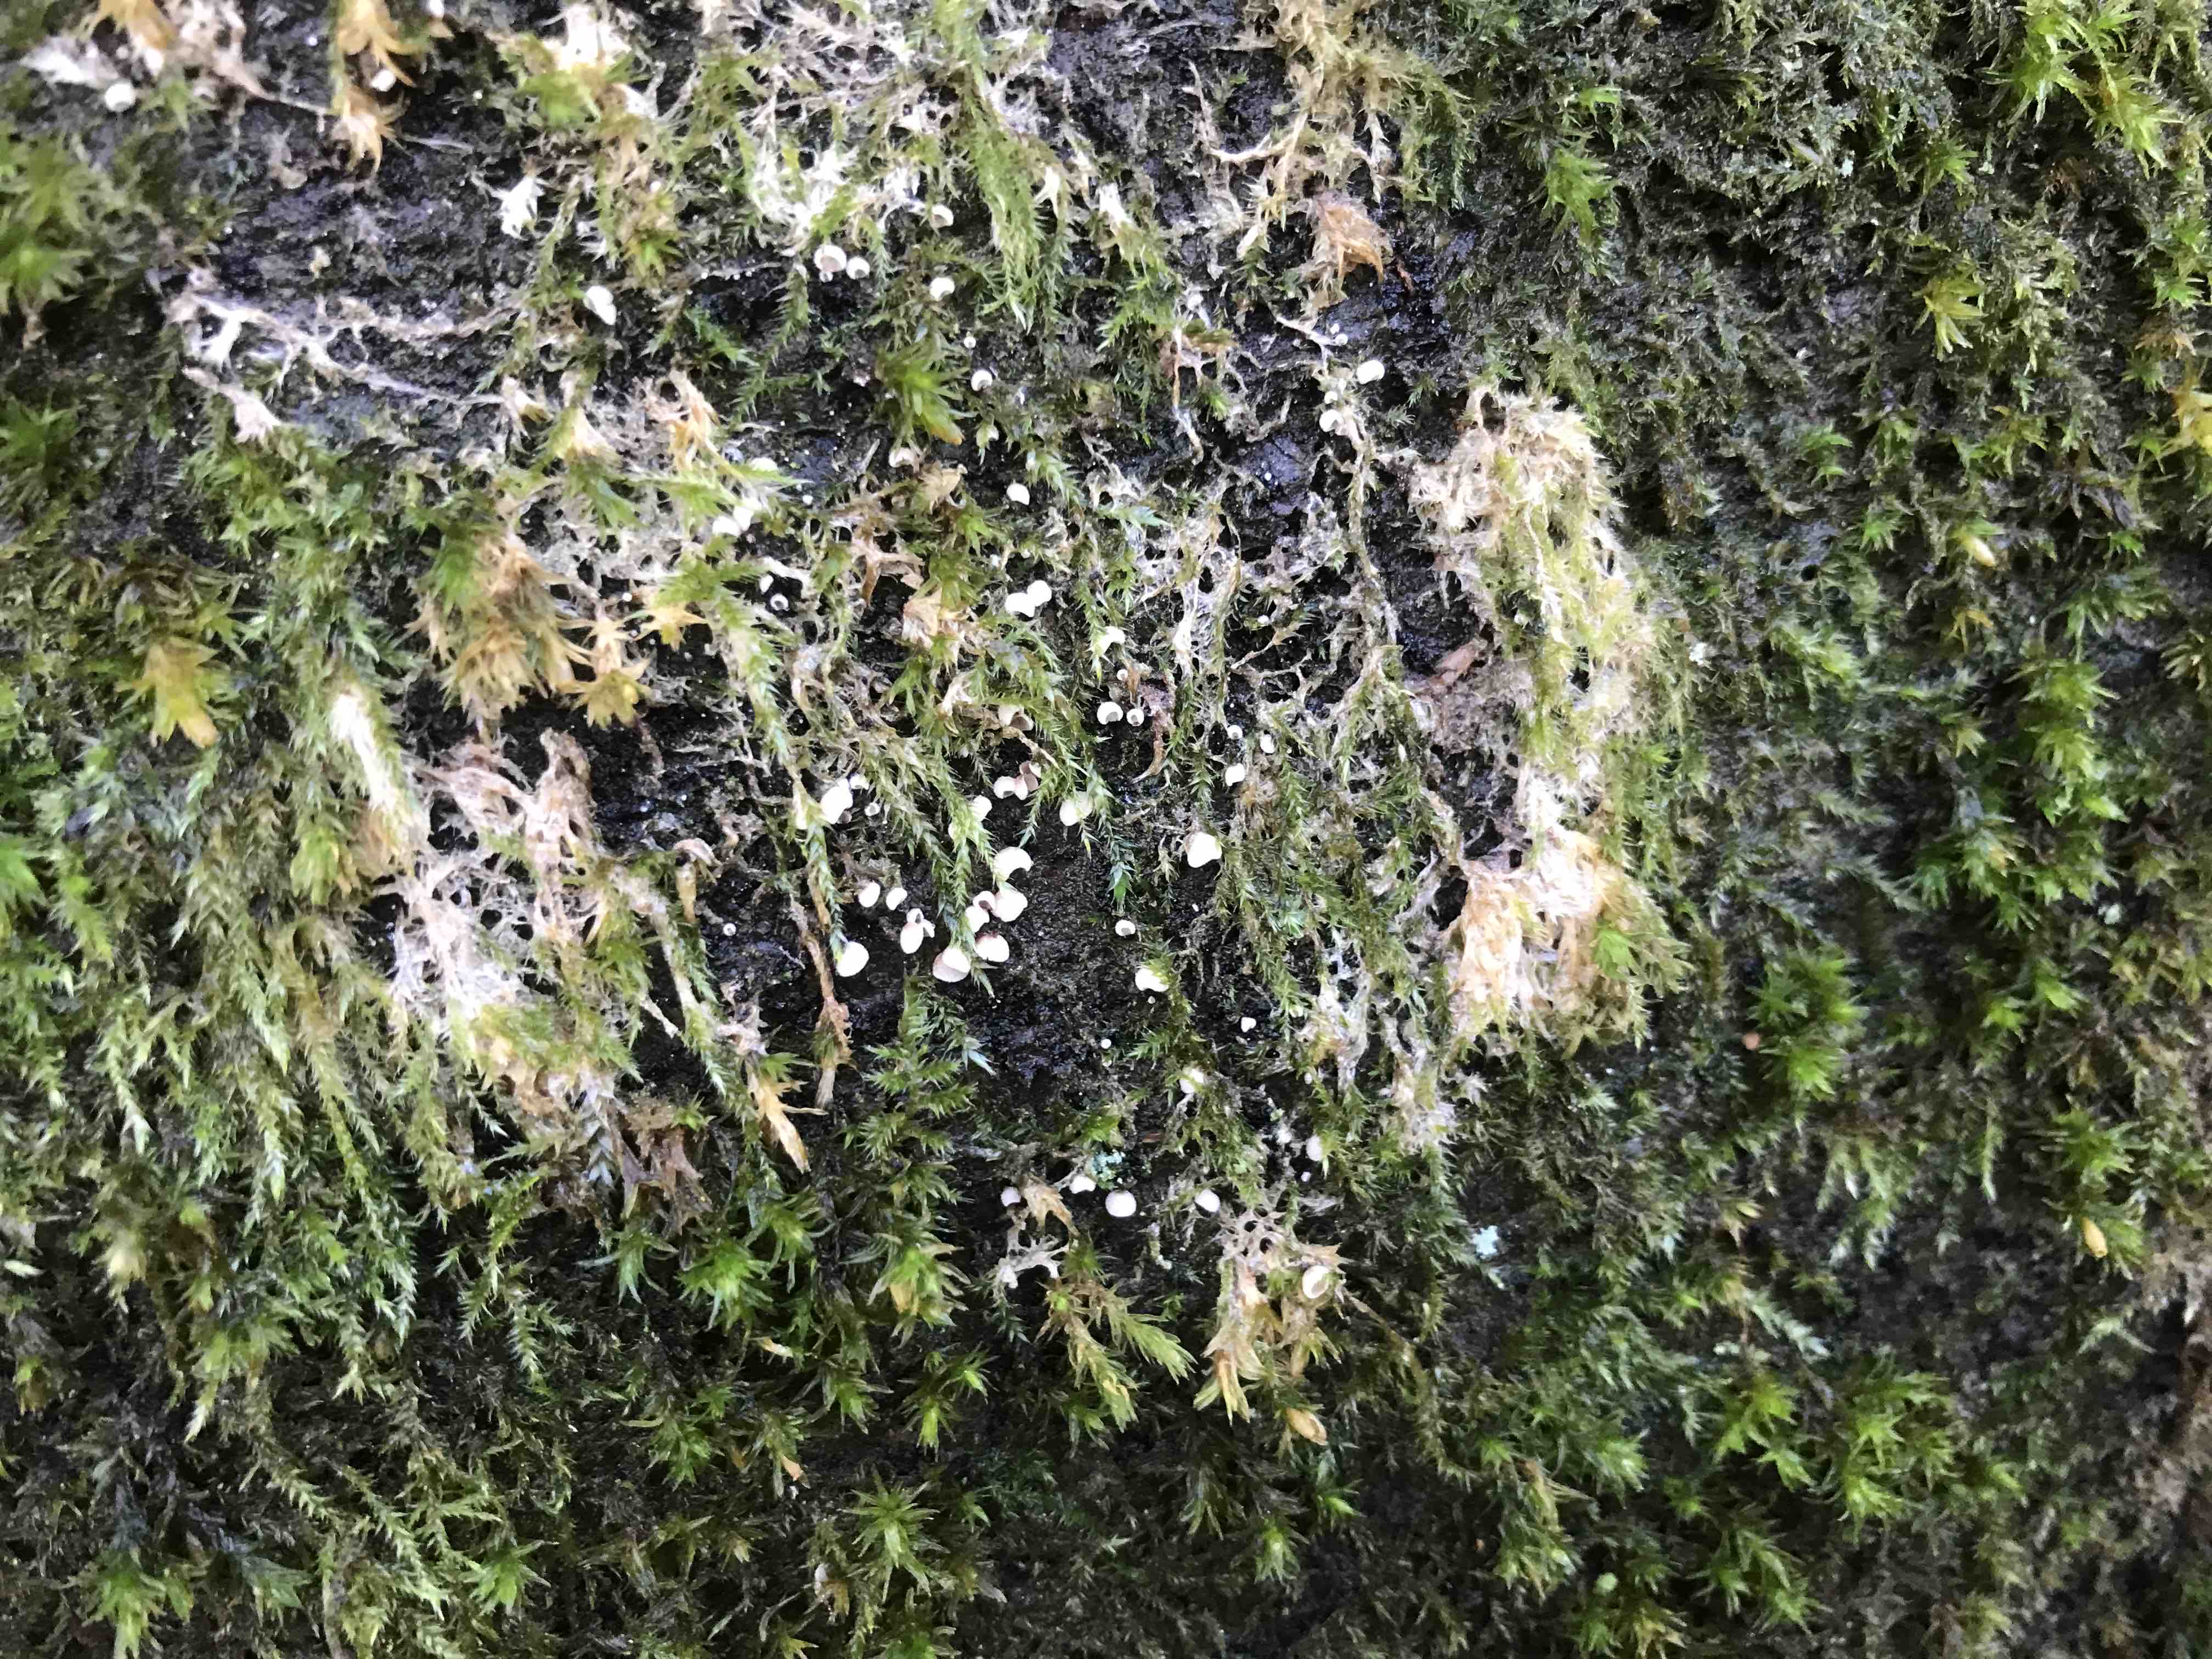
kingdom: Fungi
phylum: Basidiomycota
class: Agaricomycetes
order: Agaricales
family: Chromocyphellaceae
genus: Chromocyphella
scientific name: Chromocyphella muscicola
